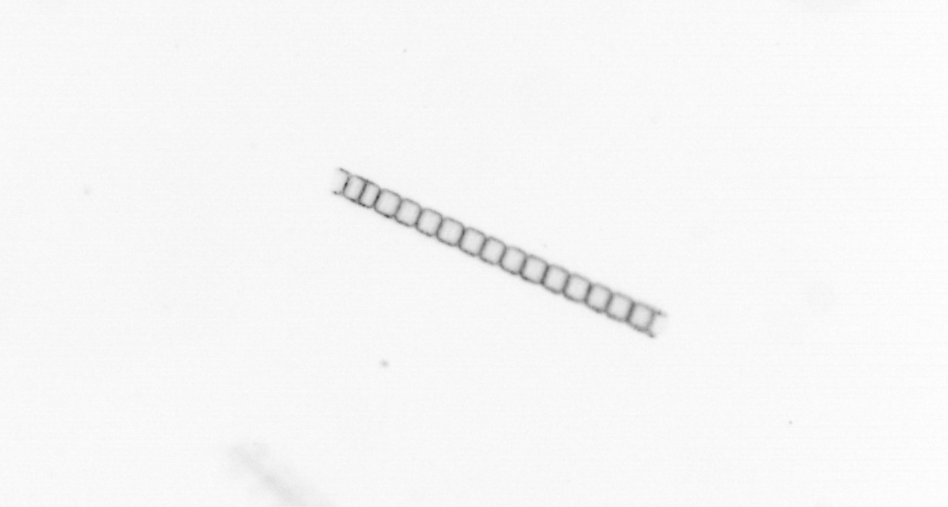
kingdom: Chromista
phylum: Ochrophyta
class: Bacillariophyceae
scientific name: Bacillariophyceae
